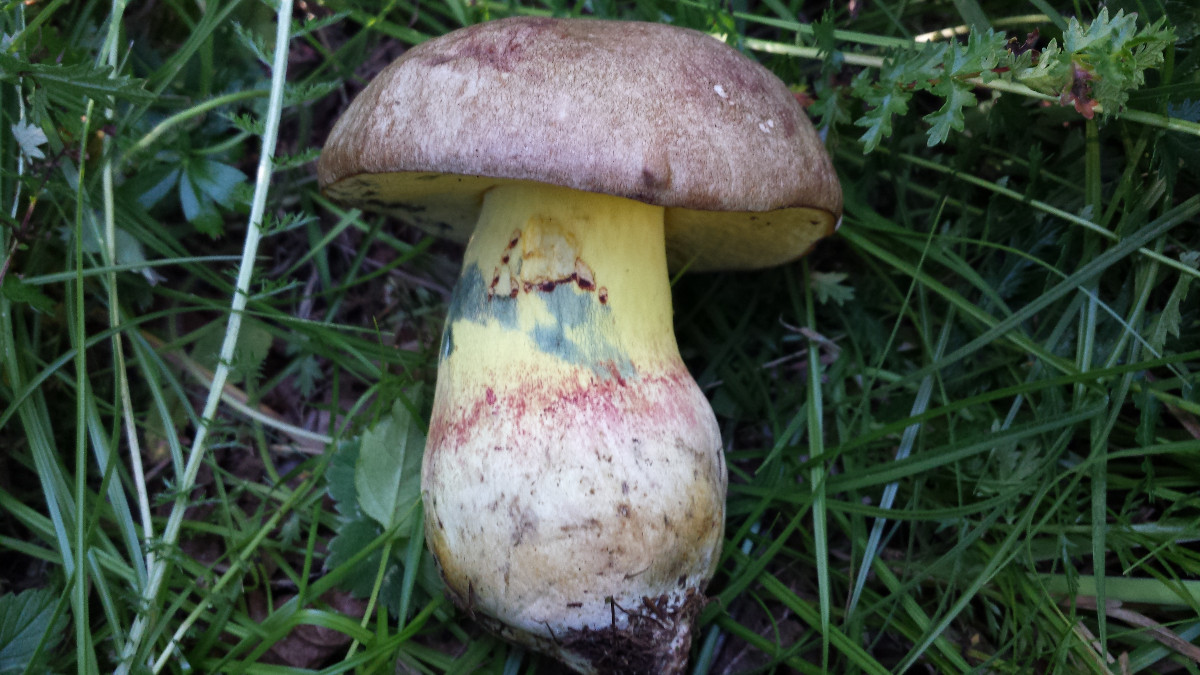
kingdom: Fungi
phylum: Basidiomycota
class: Agaricomycetes
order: Boletales
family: Boletaceae
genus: Butyriboletus
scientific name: Butyriboletus fechtneri
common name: sølvskinnende rørhat
